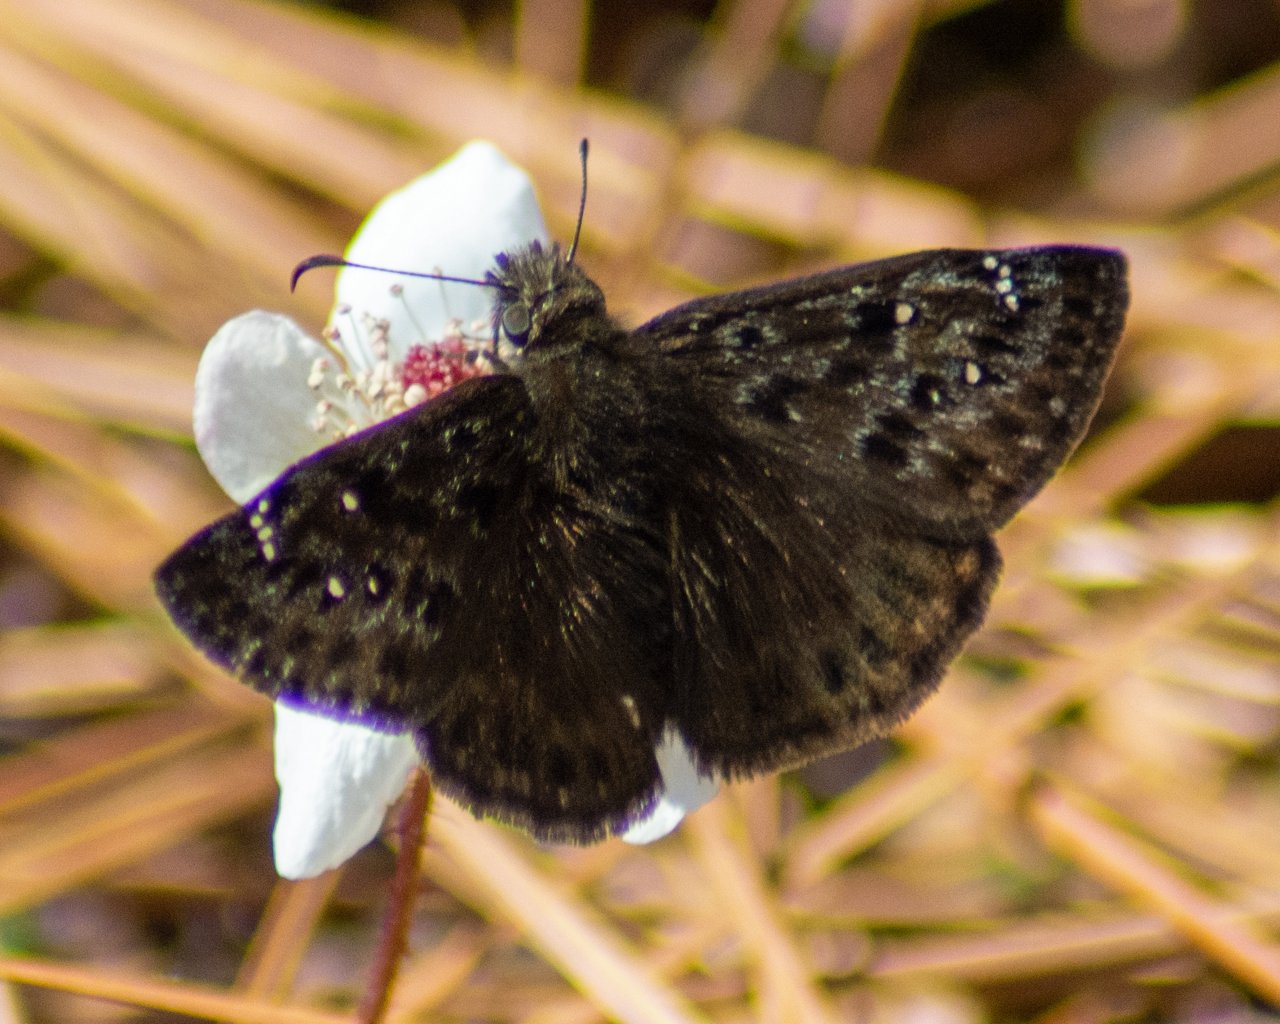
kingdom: Animalia
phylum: Arthropoda
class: Insecta
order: Lepidoptera
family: Hesperiidae
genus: Gesta
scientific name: Gesta
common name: Juvenal's Duskywing
